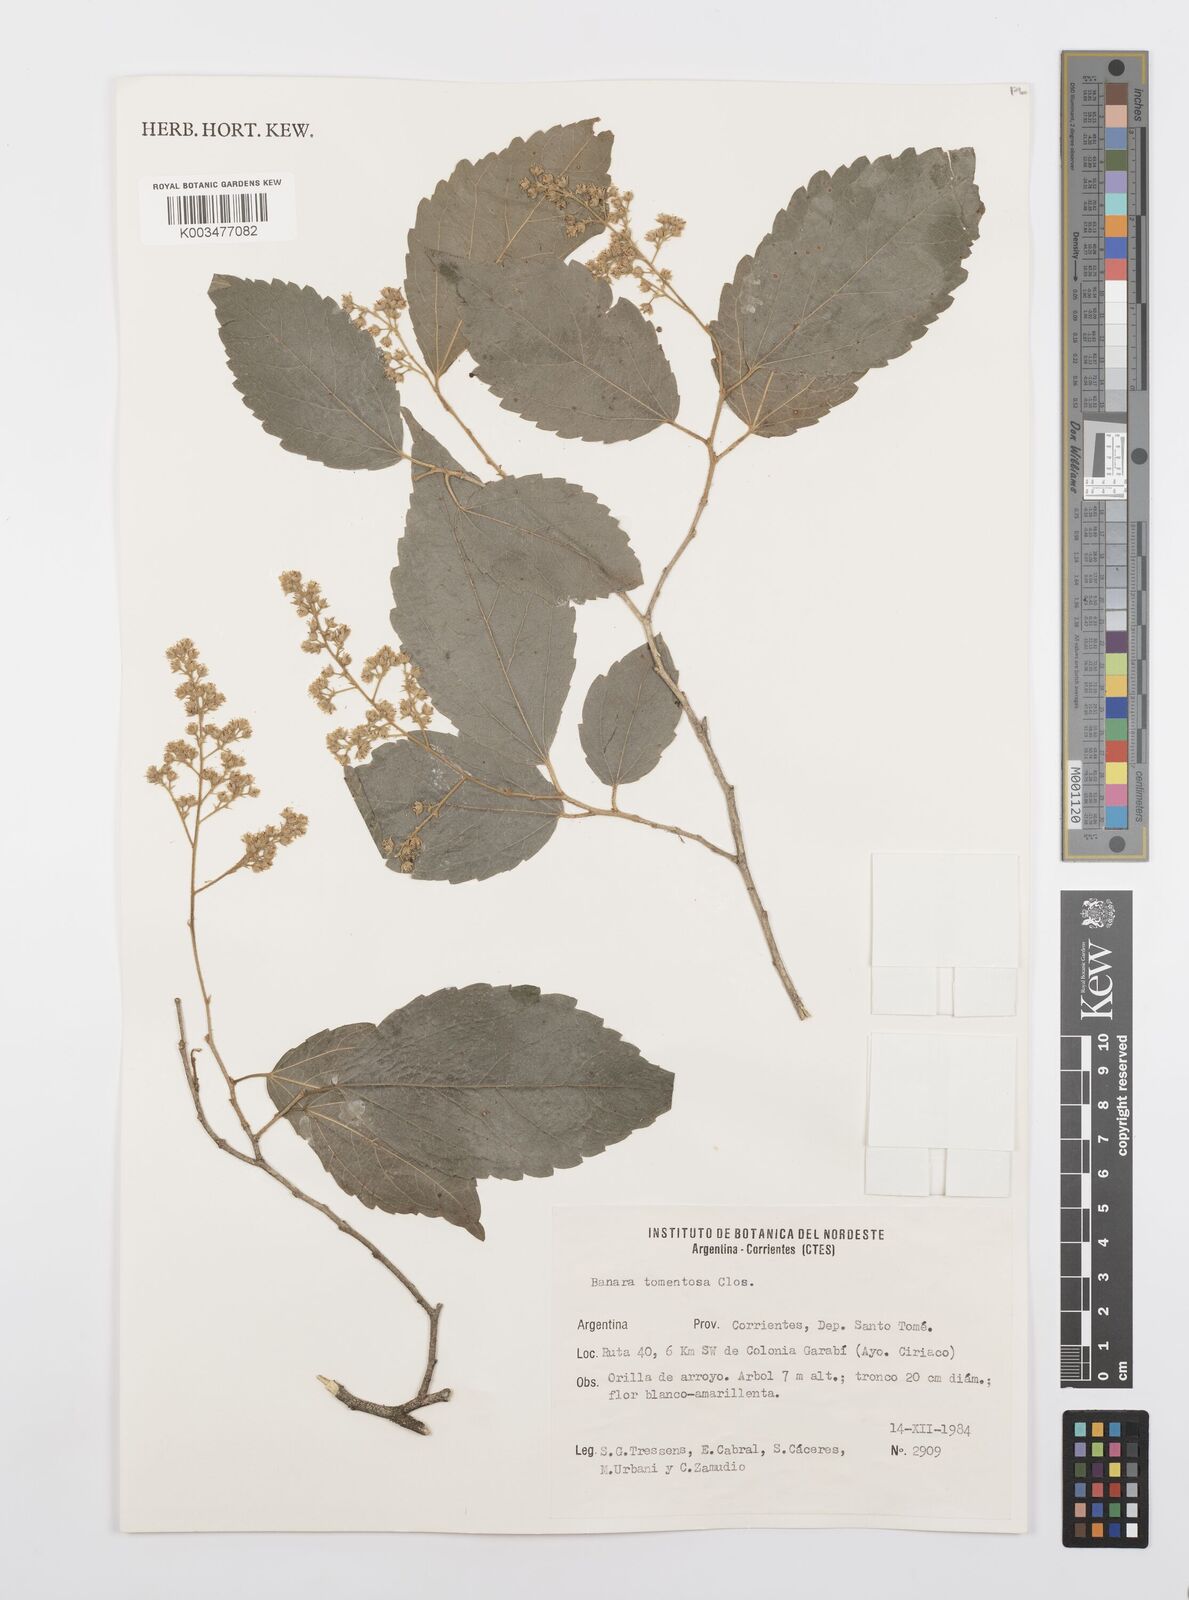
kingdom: Plantae
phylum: Tracheophyta
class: Magnoliopsida
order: Malpighiales
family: Salicaceae
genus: Banara
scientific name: Banara tomentosa
